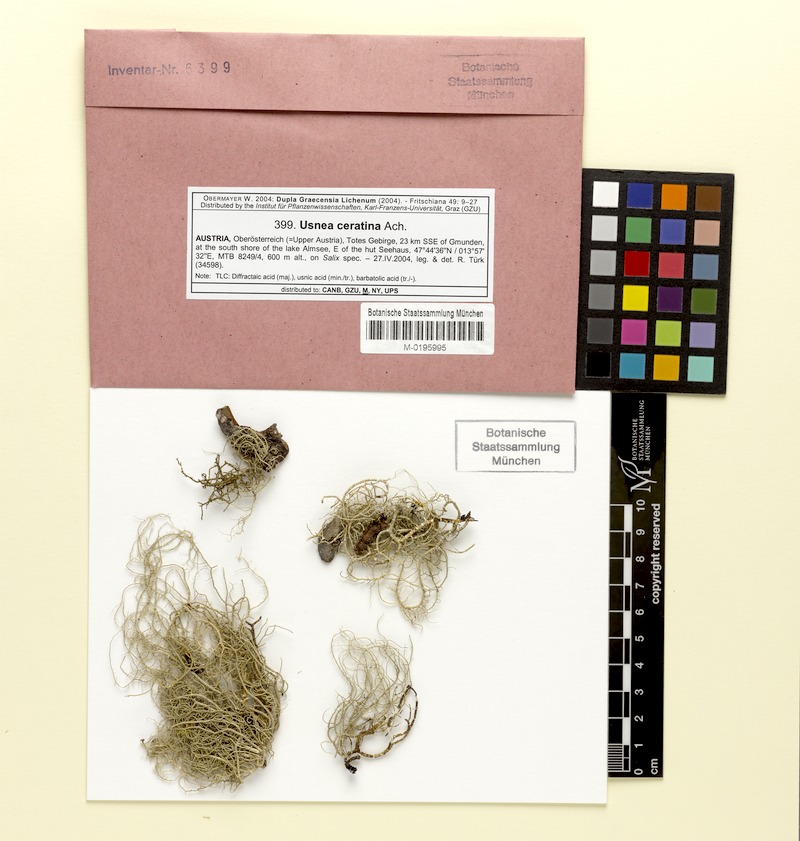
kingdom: Fungi
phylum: Ascomycota
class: Lecanoromycetes
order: Lecanorales
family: Parmeliaceae
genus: Usnea
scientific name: Usnea ceratina
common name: Warty beard lichen
